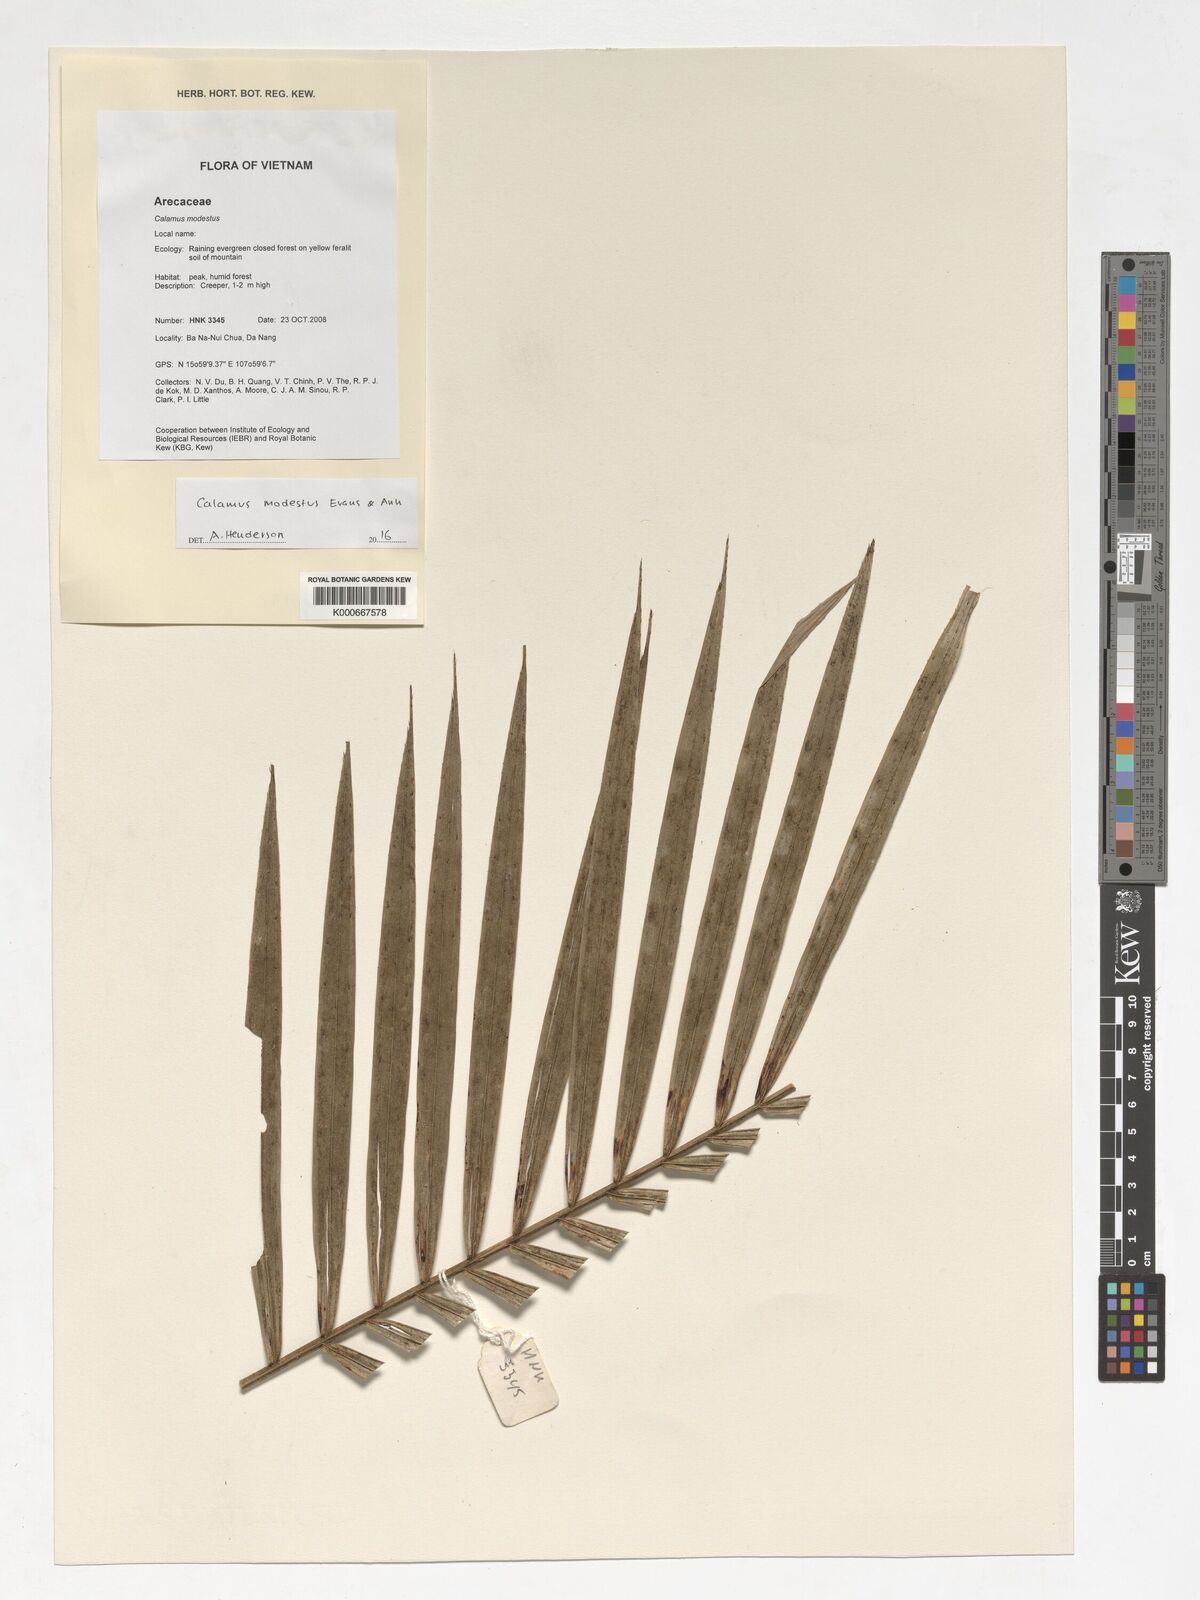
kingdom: Plantae
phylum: Tracheophyta
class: Liliopsida
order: Arecales
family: Arecaceae
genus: Calamus
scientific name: Calamus modestus
